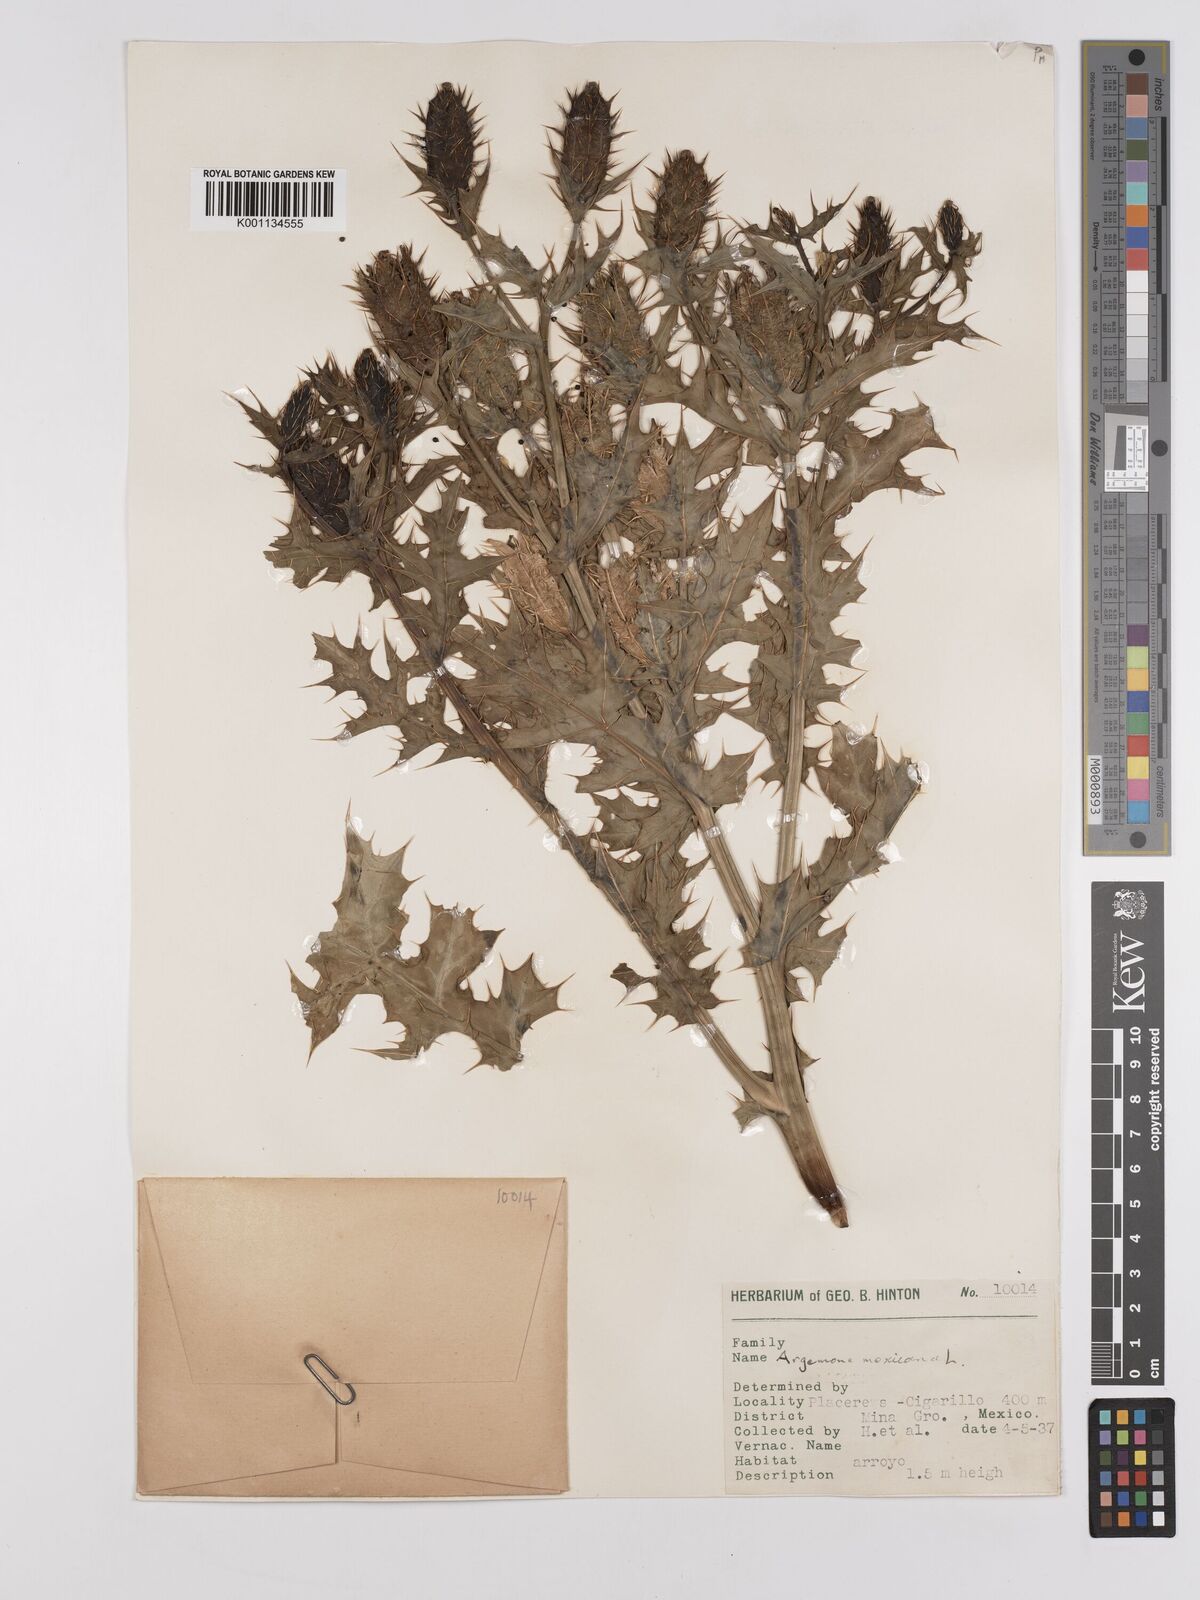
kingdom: Plantae
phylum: Tracheophyta
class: Magnoliopsida
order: Ranunculales
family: Papaveraceae
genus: Argemone
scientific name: Argemone mexicana
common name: Mexican poppy
